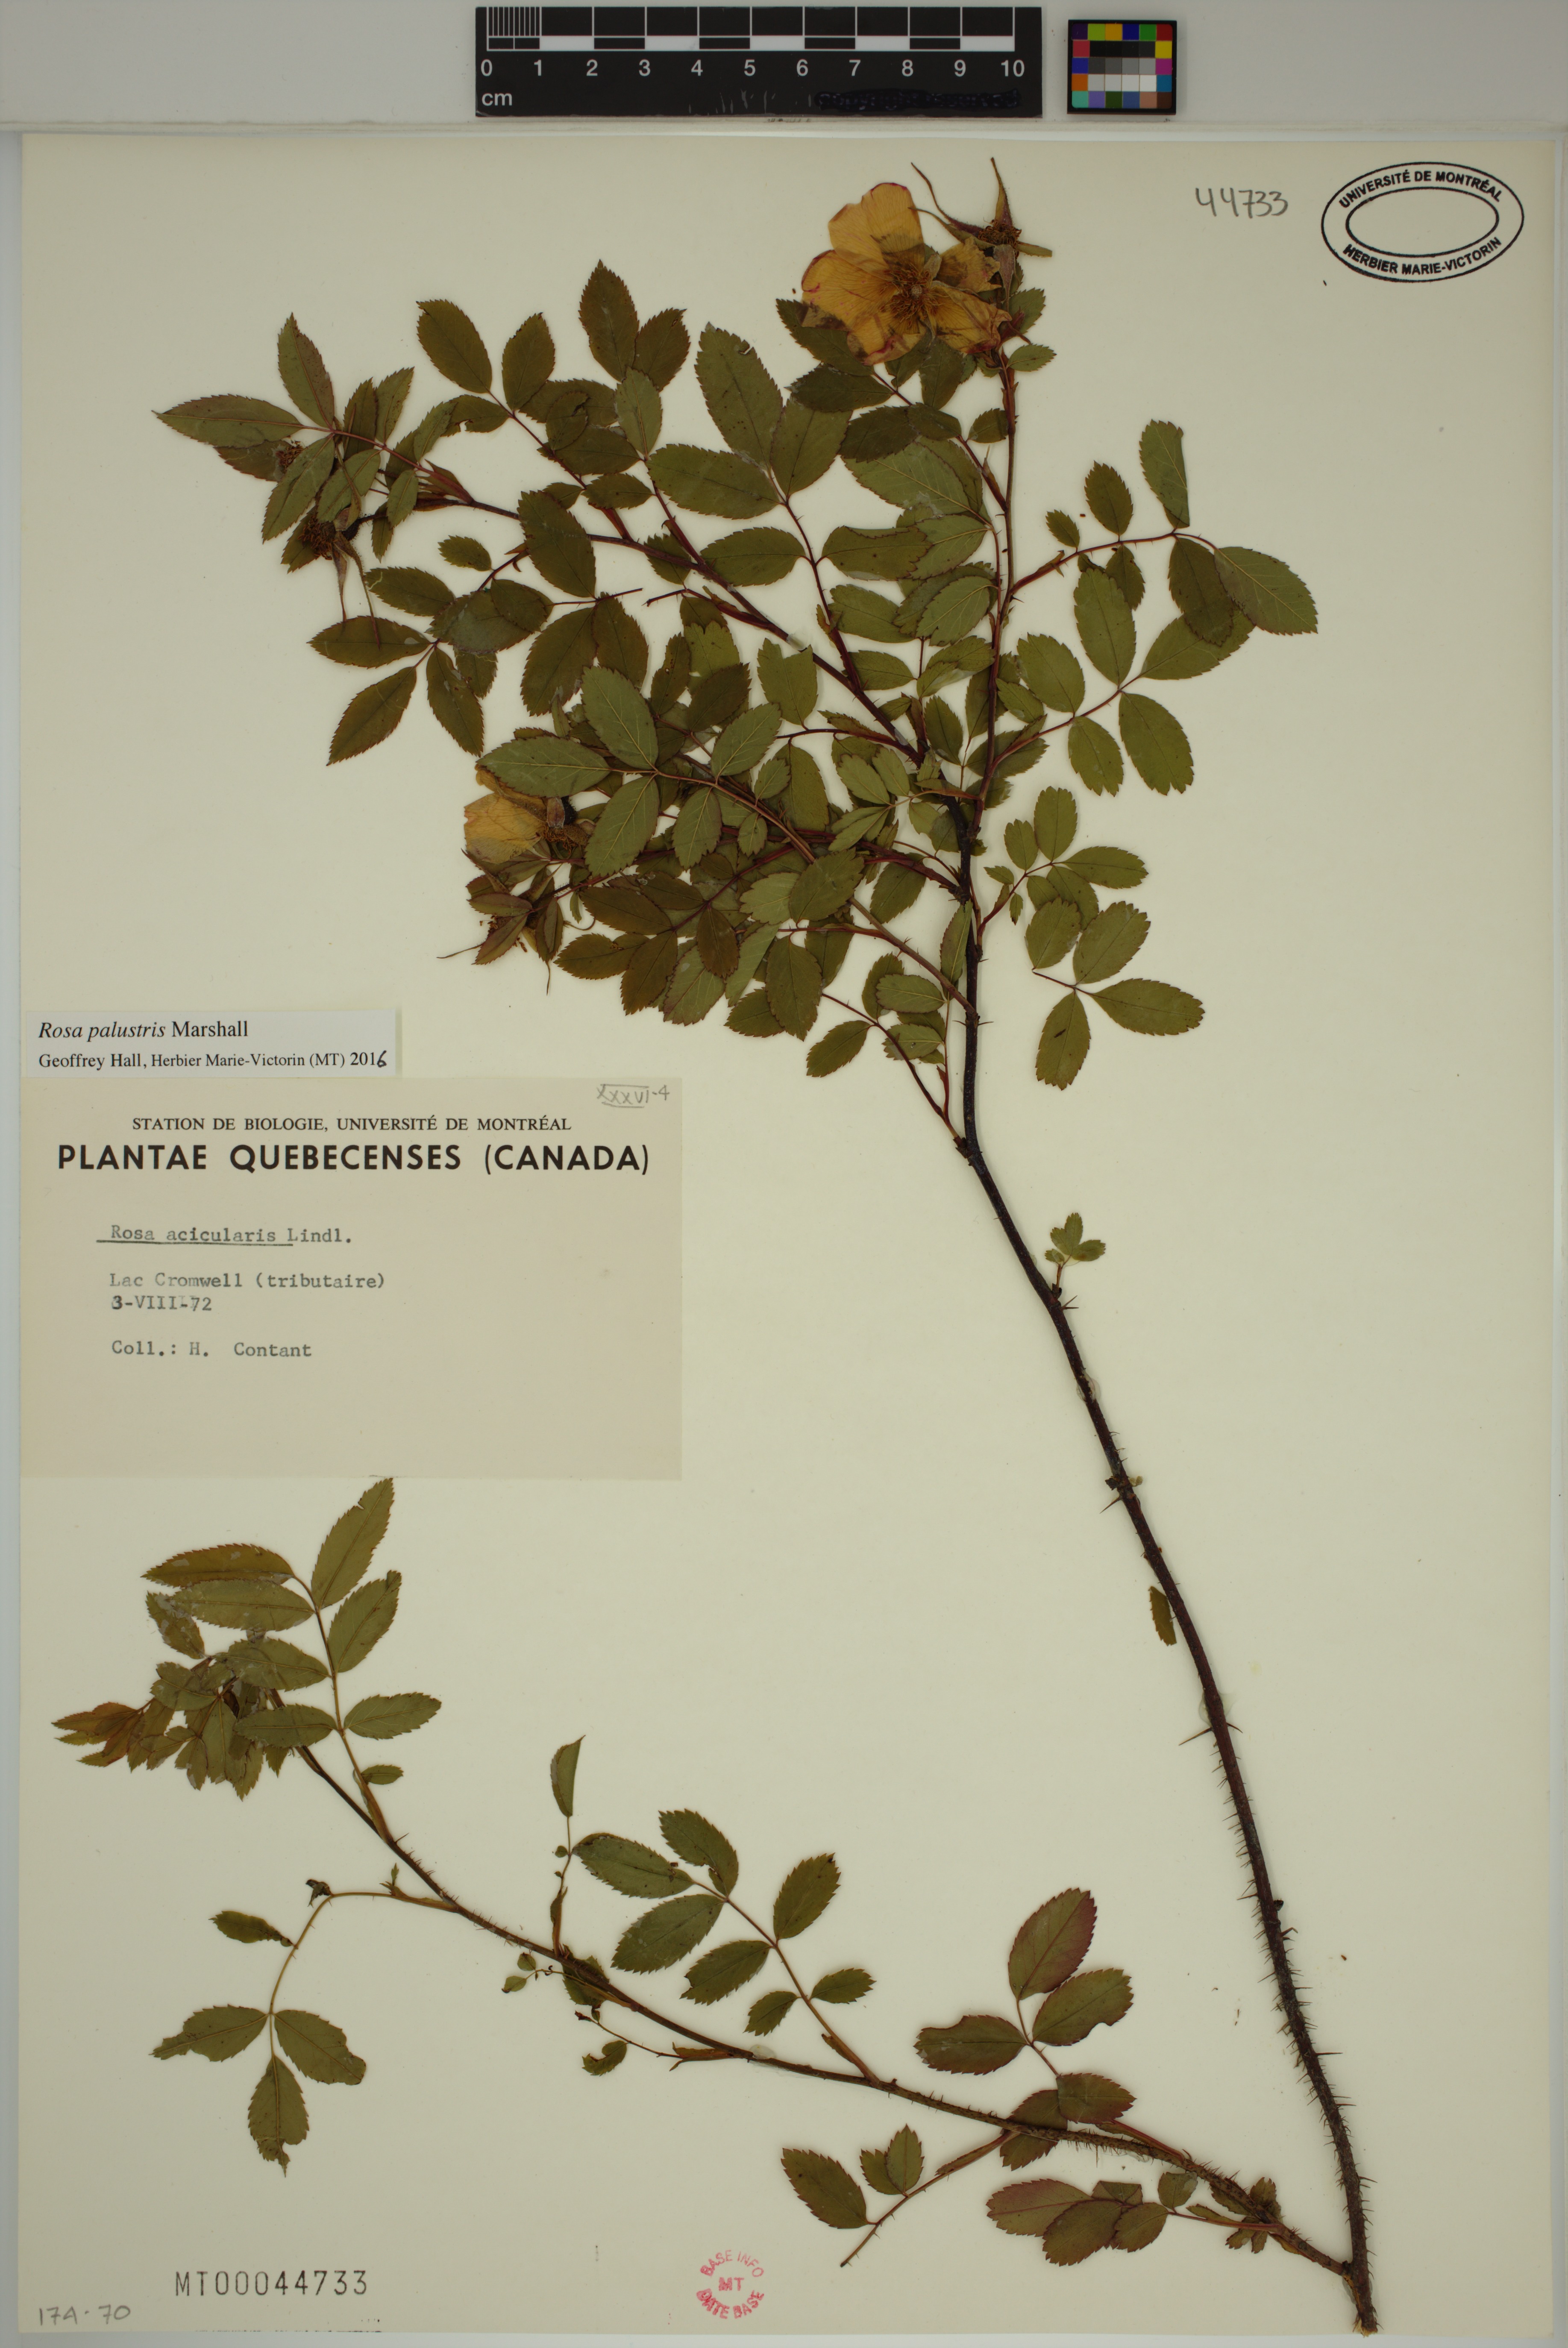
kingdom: Plantae
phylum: Tracheophyta
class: Magnoliopsida
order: Rosales
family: Rosaceae
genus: Rosa
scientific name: Rosa palustris
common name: Swamp rose
